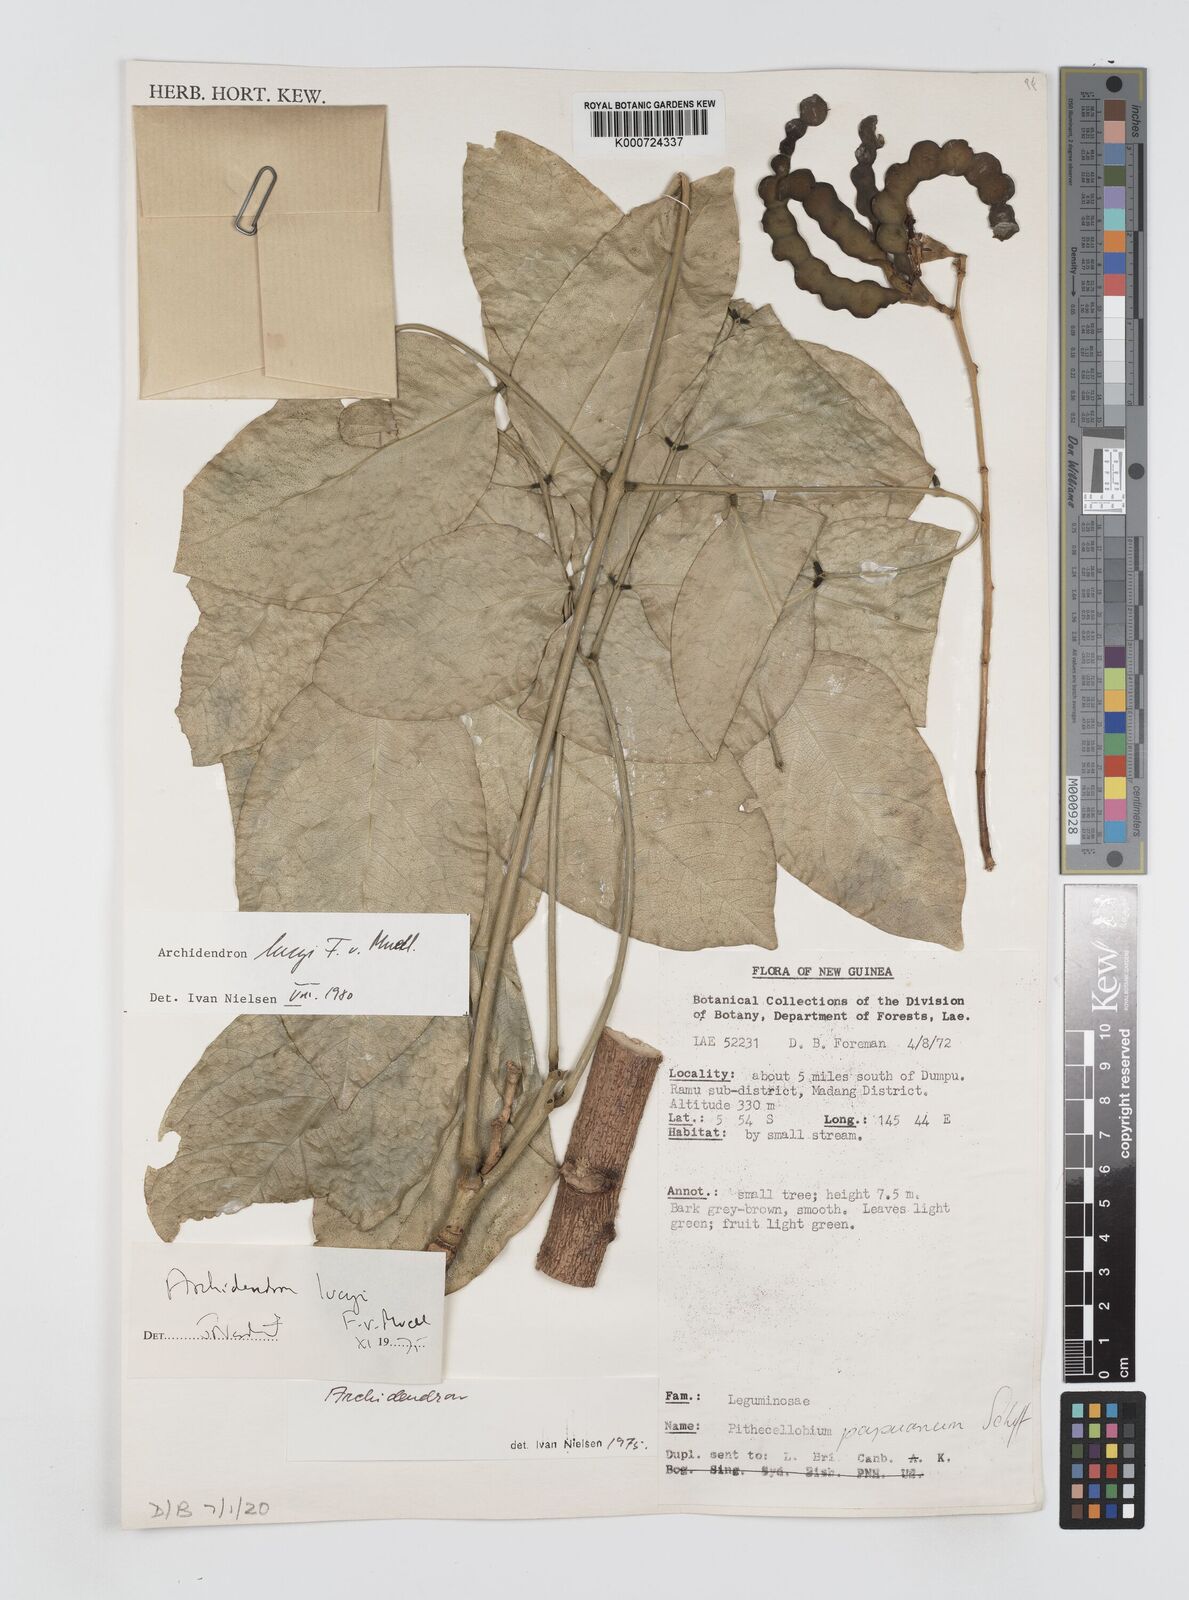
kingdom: Plantae
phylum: Tracheophyta
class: Magnoliopsida
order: Fabales
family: Fabaceae
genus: Archidendron
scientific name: Archidendron lucyi
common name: Scarlet bean
